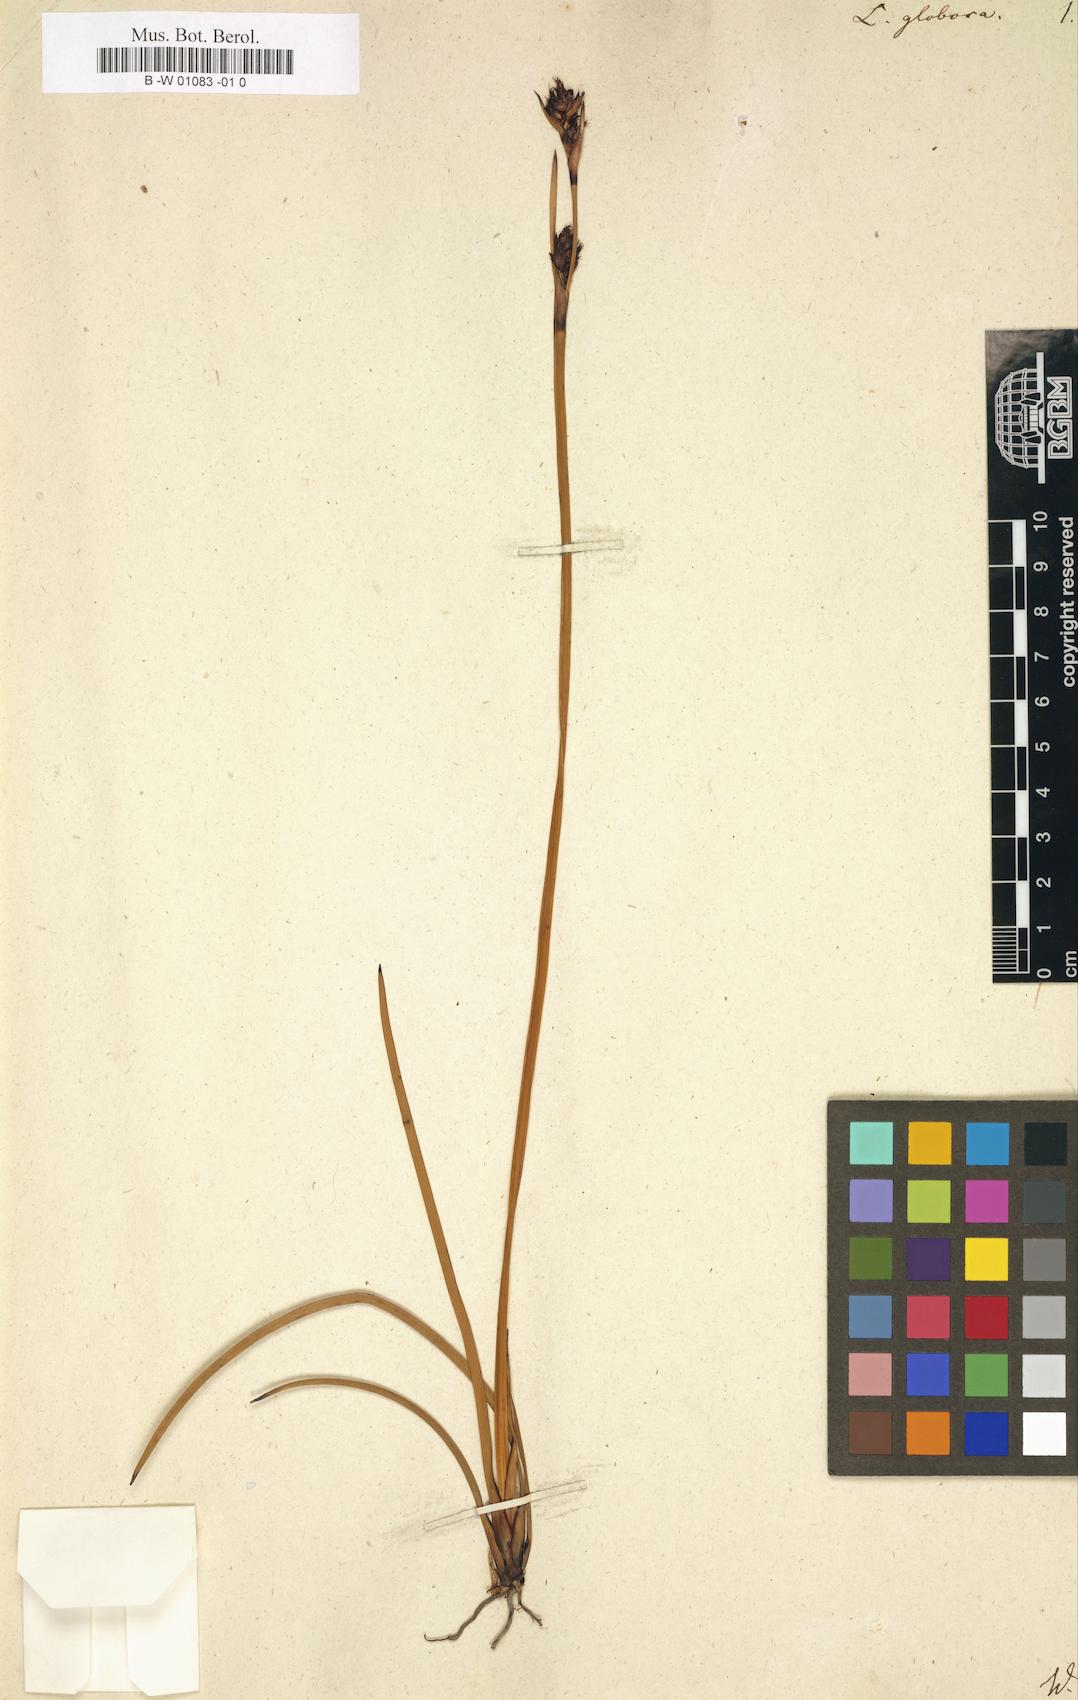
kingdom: Plantae
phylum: Tracheophyta
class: Liliopsida
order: Poales
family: Cyperaceae
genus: Lepidosperma
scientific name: Lepidosperma globosum
